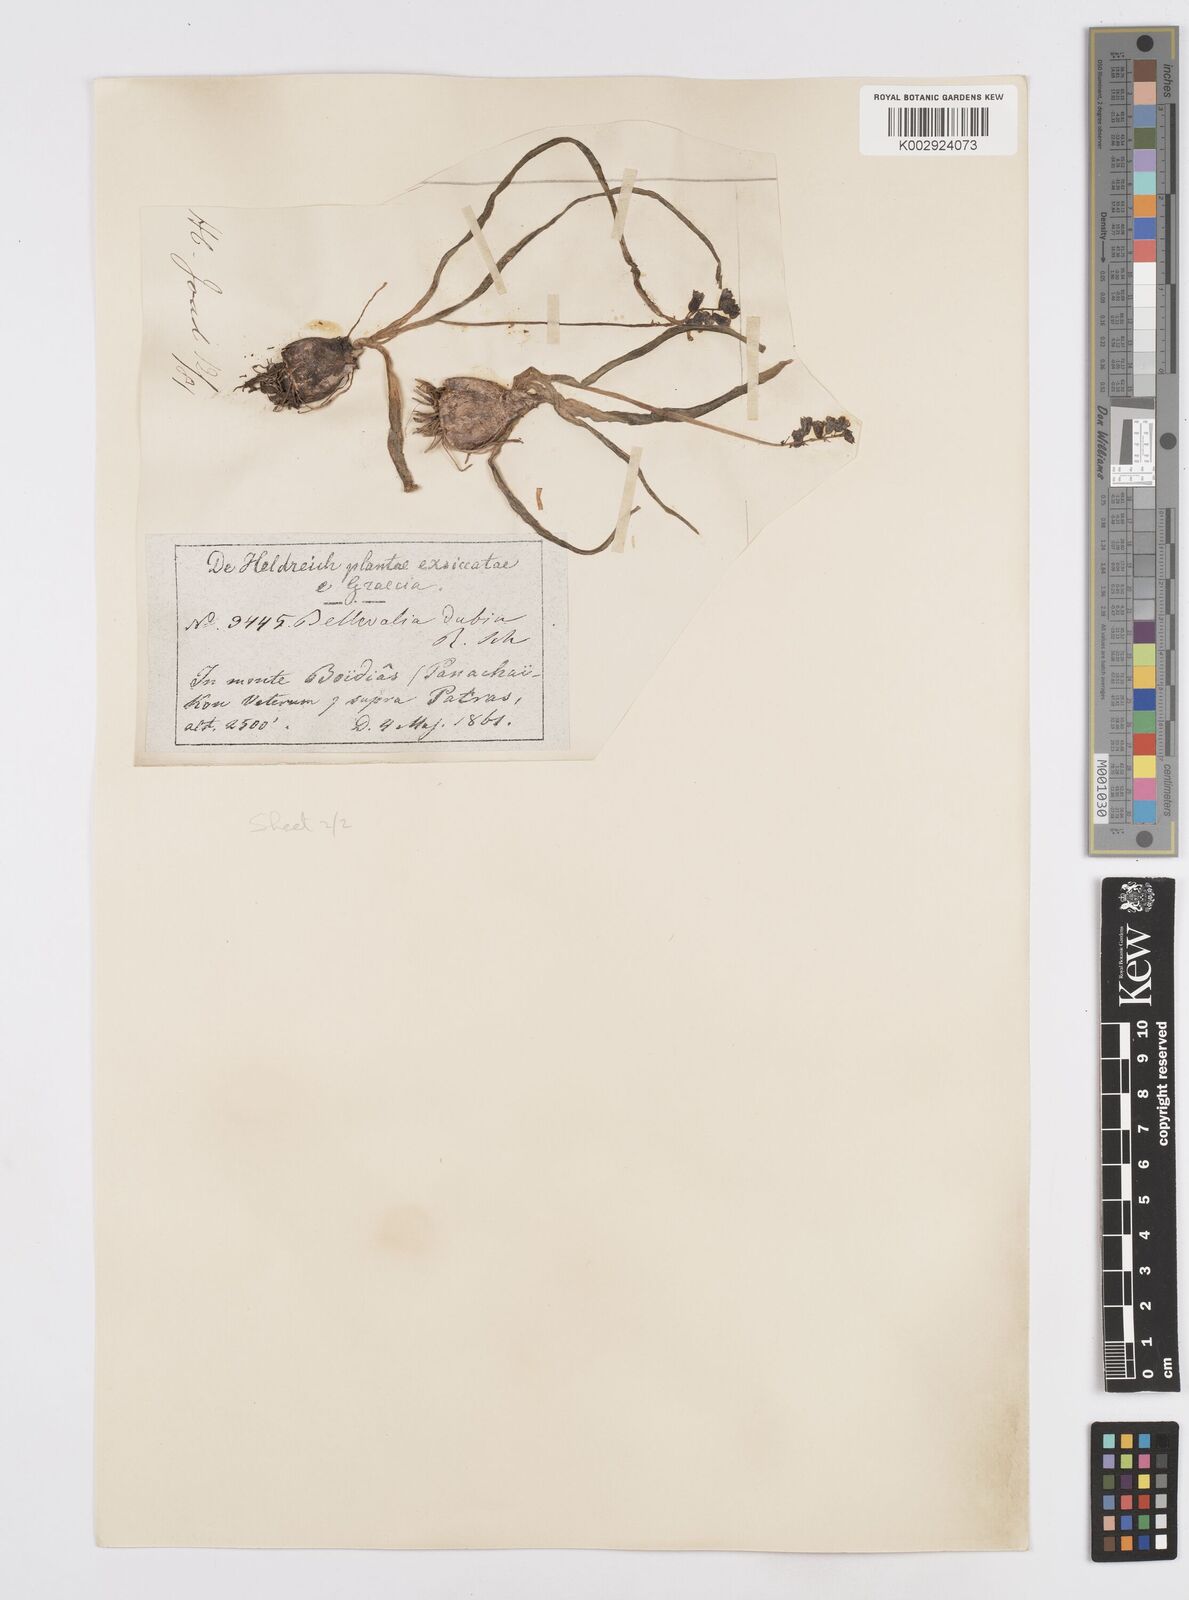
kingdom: Plantae
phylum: Tracheophyta
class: Liliopsida
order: Asparagales
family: Asparagaceae
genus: Bellevalia
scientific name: Bellevalia dubia
